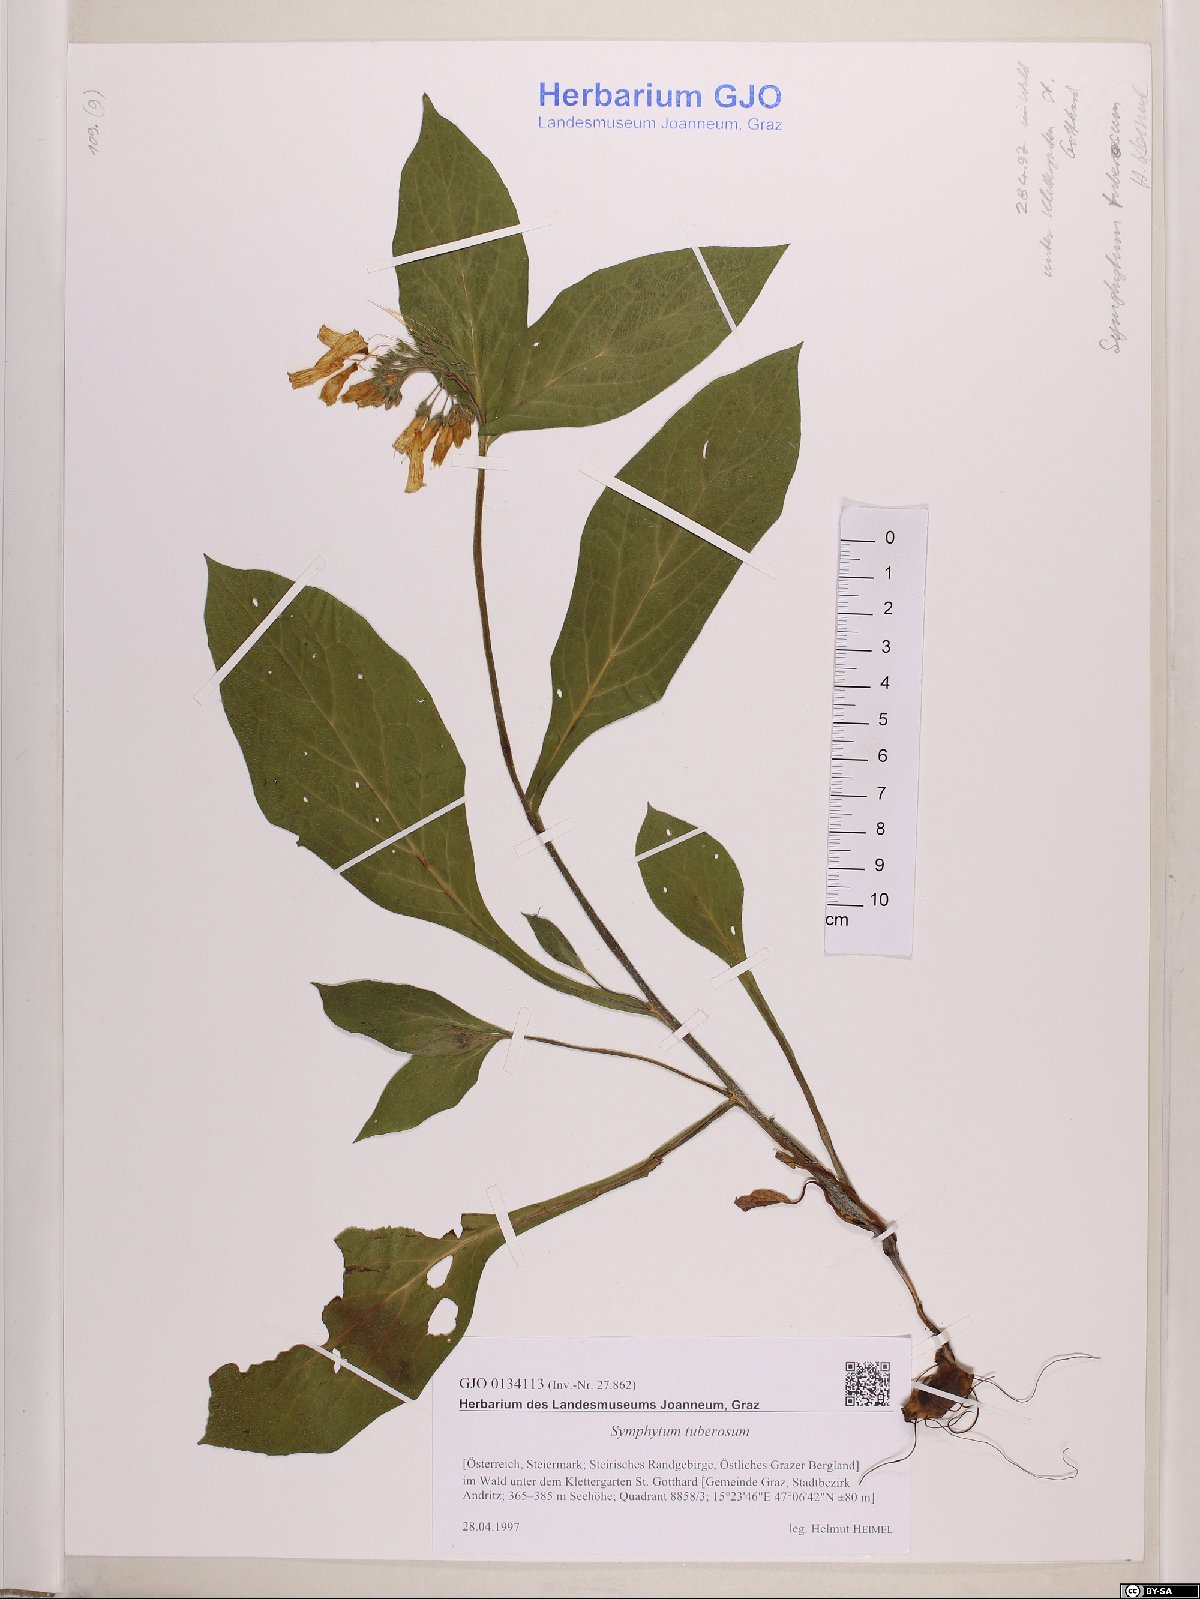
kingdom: Plantae
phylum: Tracheophyta
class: Magnoliopsida
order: Boraginales
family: Boraginaceae
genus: Symphytum
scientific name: Symphytum tuberosum
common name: Tuberous comfrey
